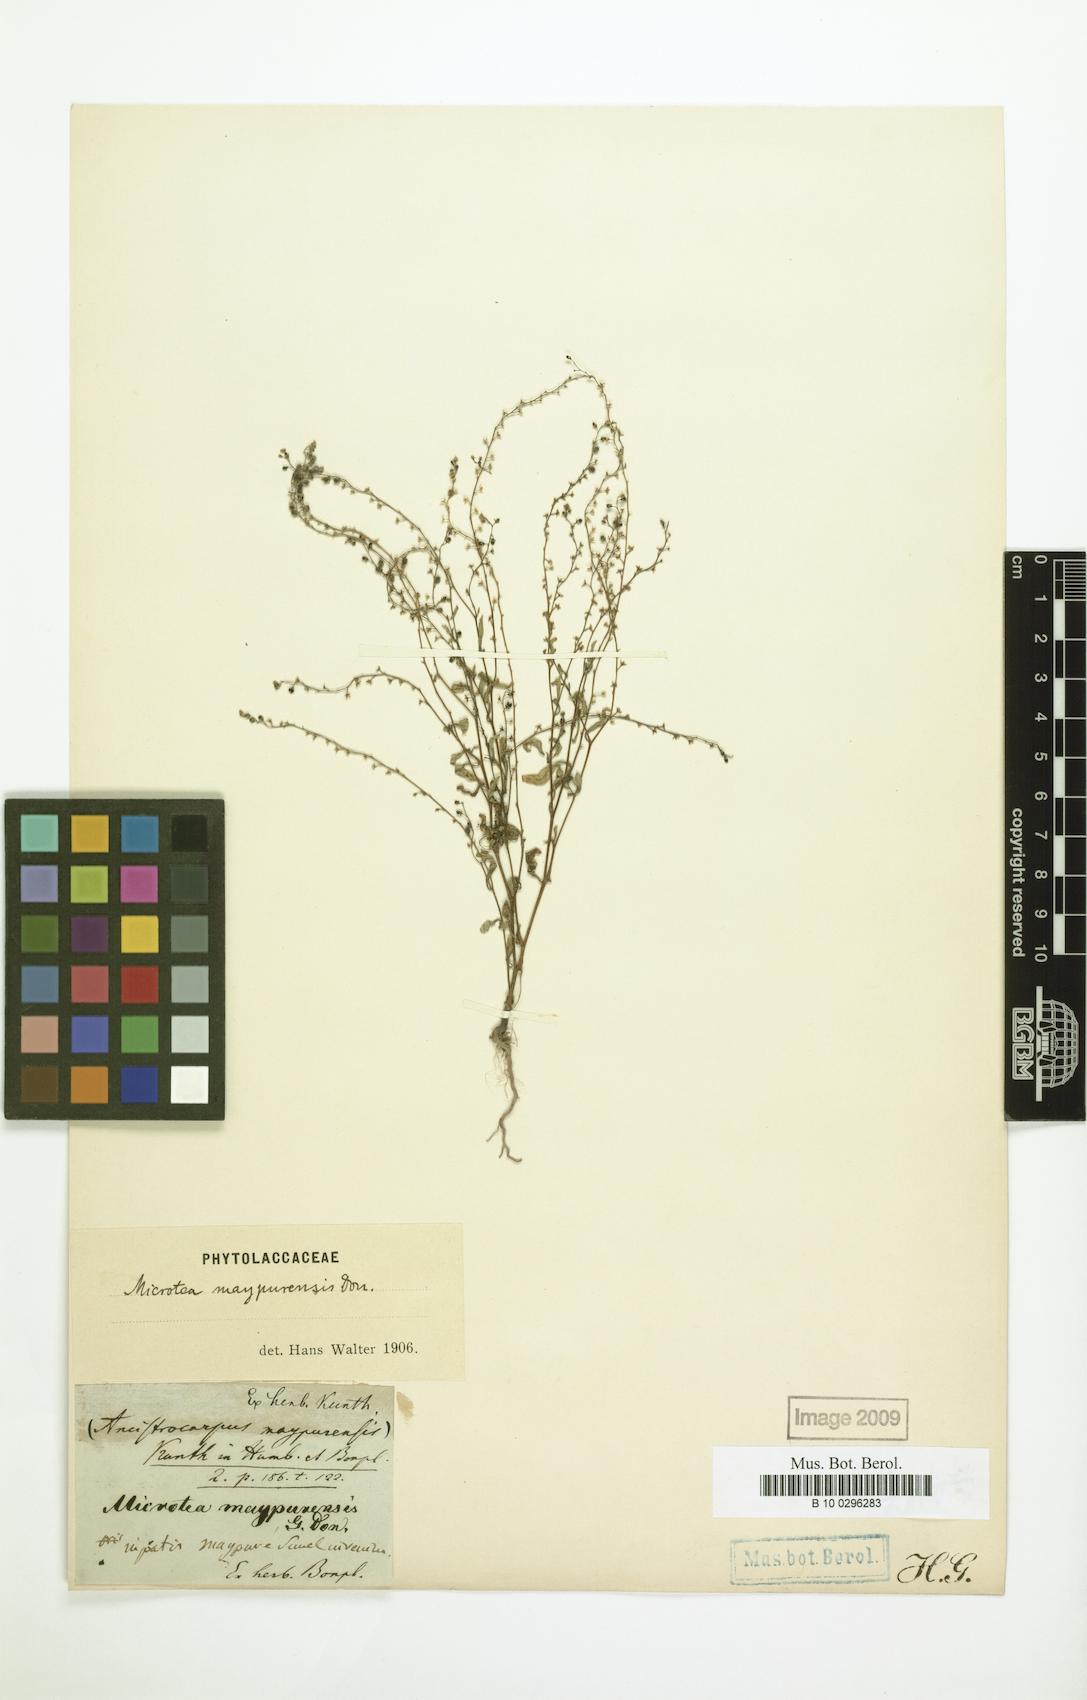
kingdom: Plantae
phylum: Tracheophyta
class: Magnoliopsida
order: Caryophyllales
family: Microteaceae
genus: Microtea
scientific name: Microtea maypurensis
